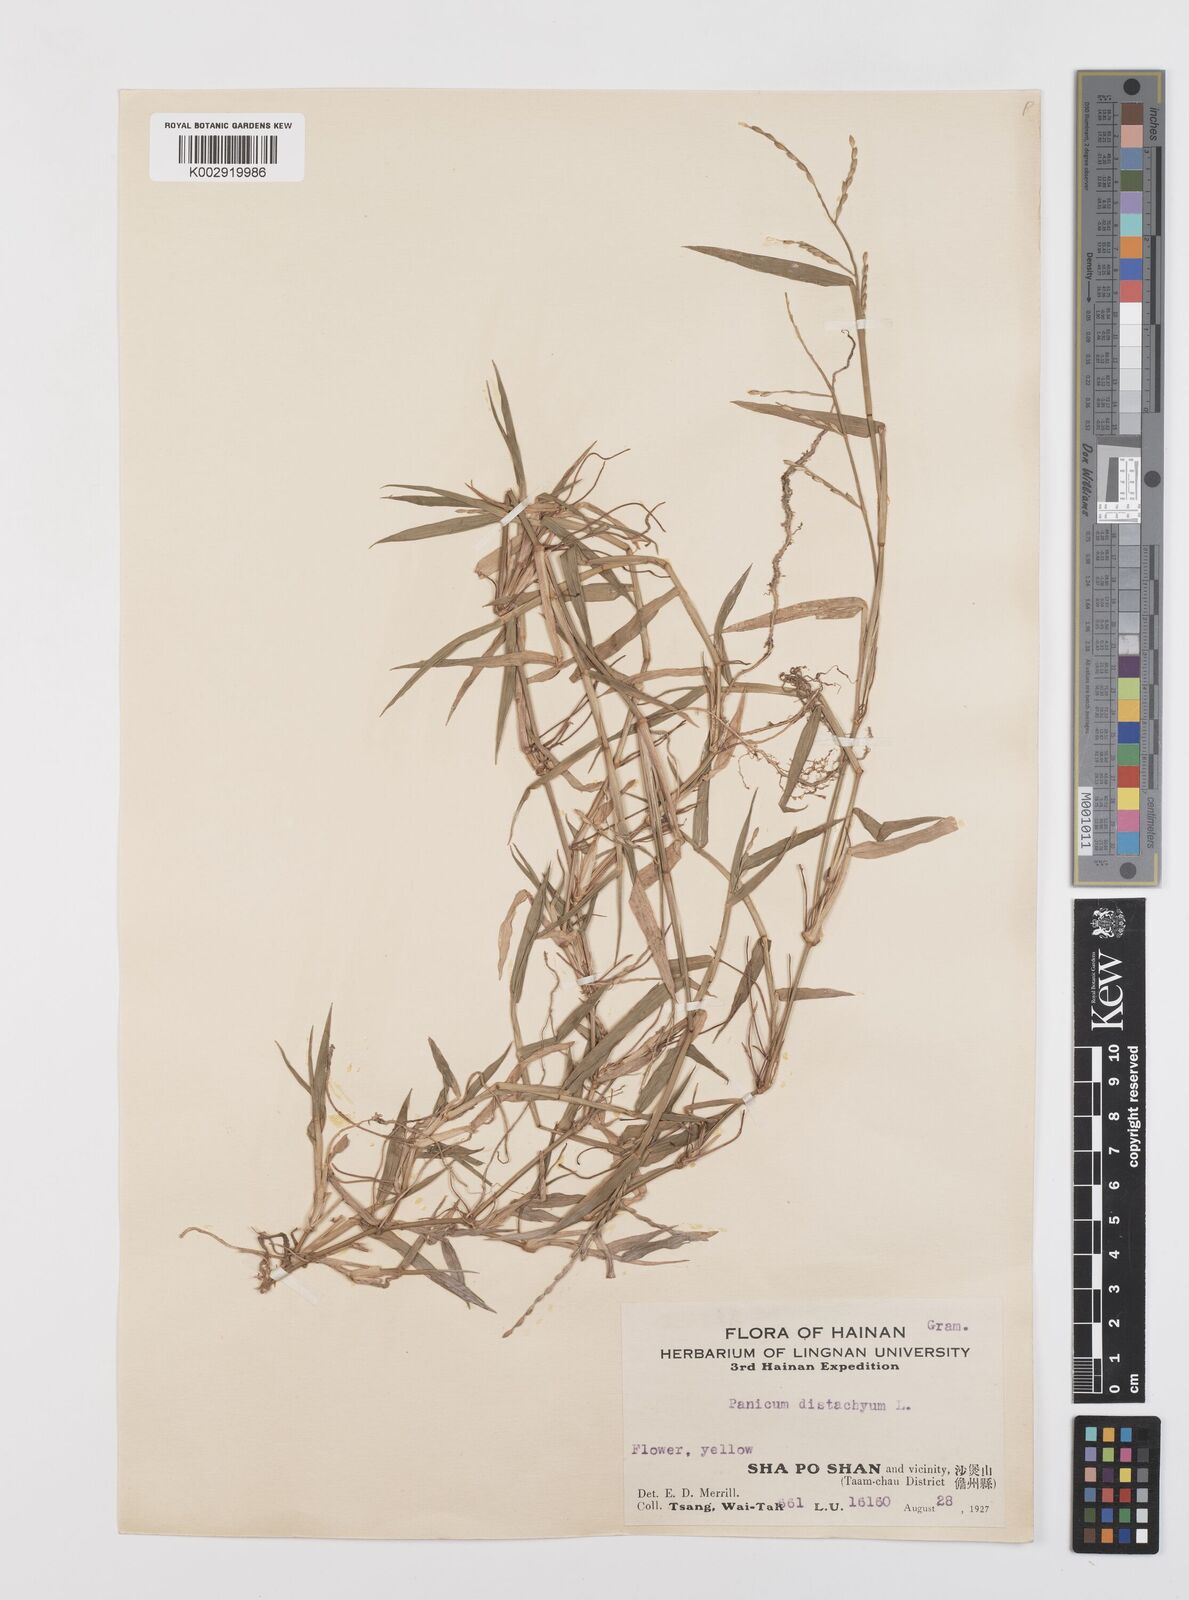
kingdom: Plantae
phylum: Tracheophyta
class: Liliopsida
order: Poales
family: Poaceae
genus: Urochloa
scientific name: Urochloa subquadripara
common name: Armgrass millet
